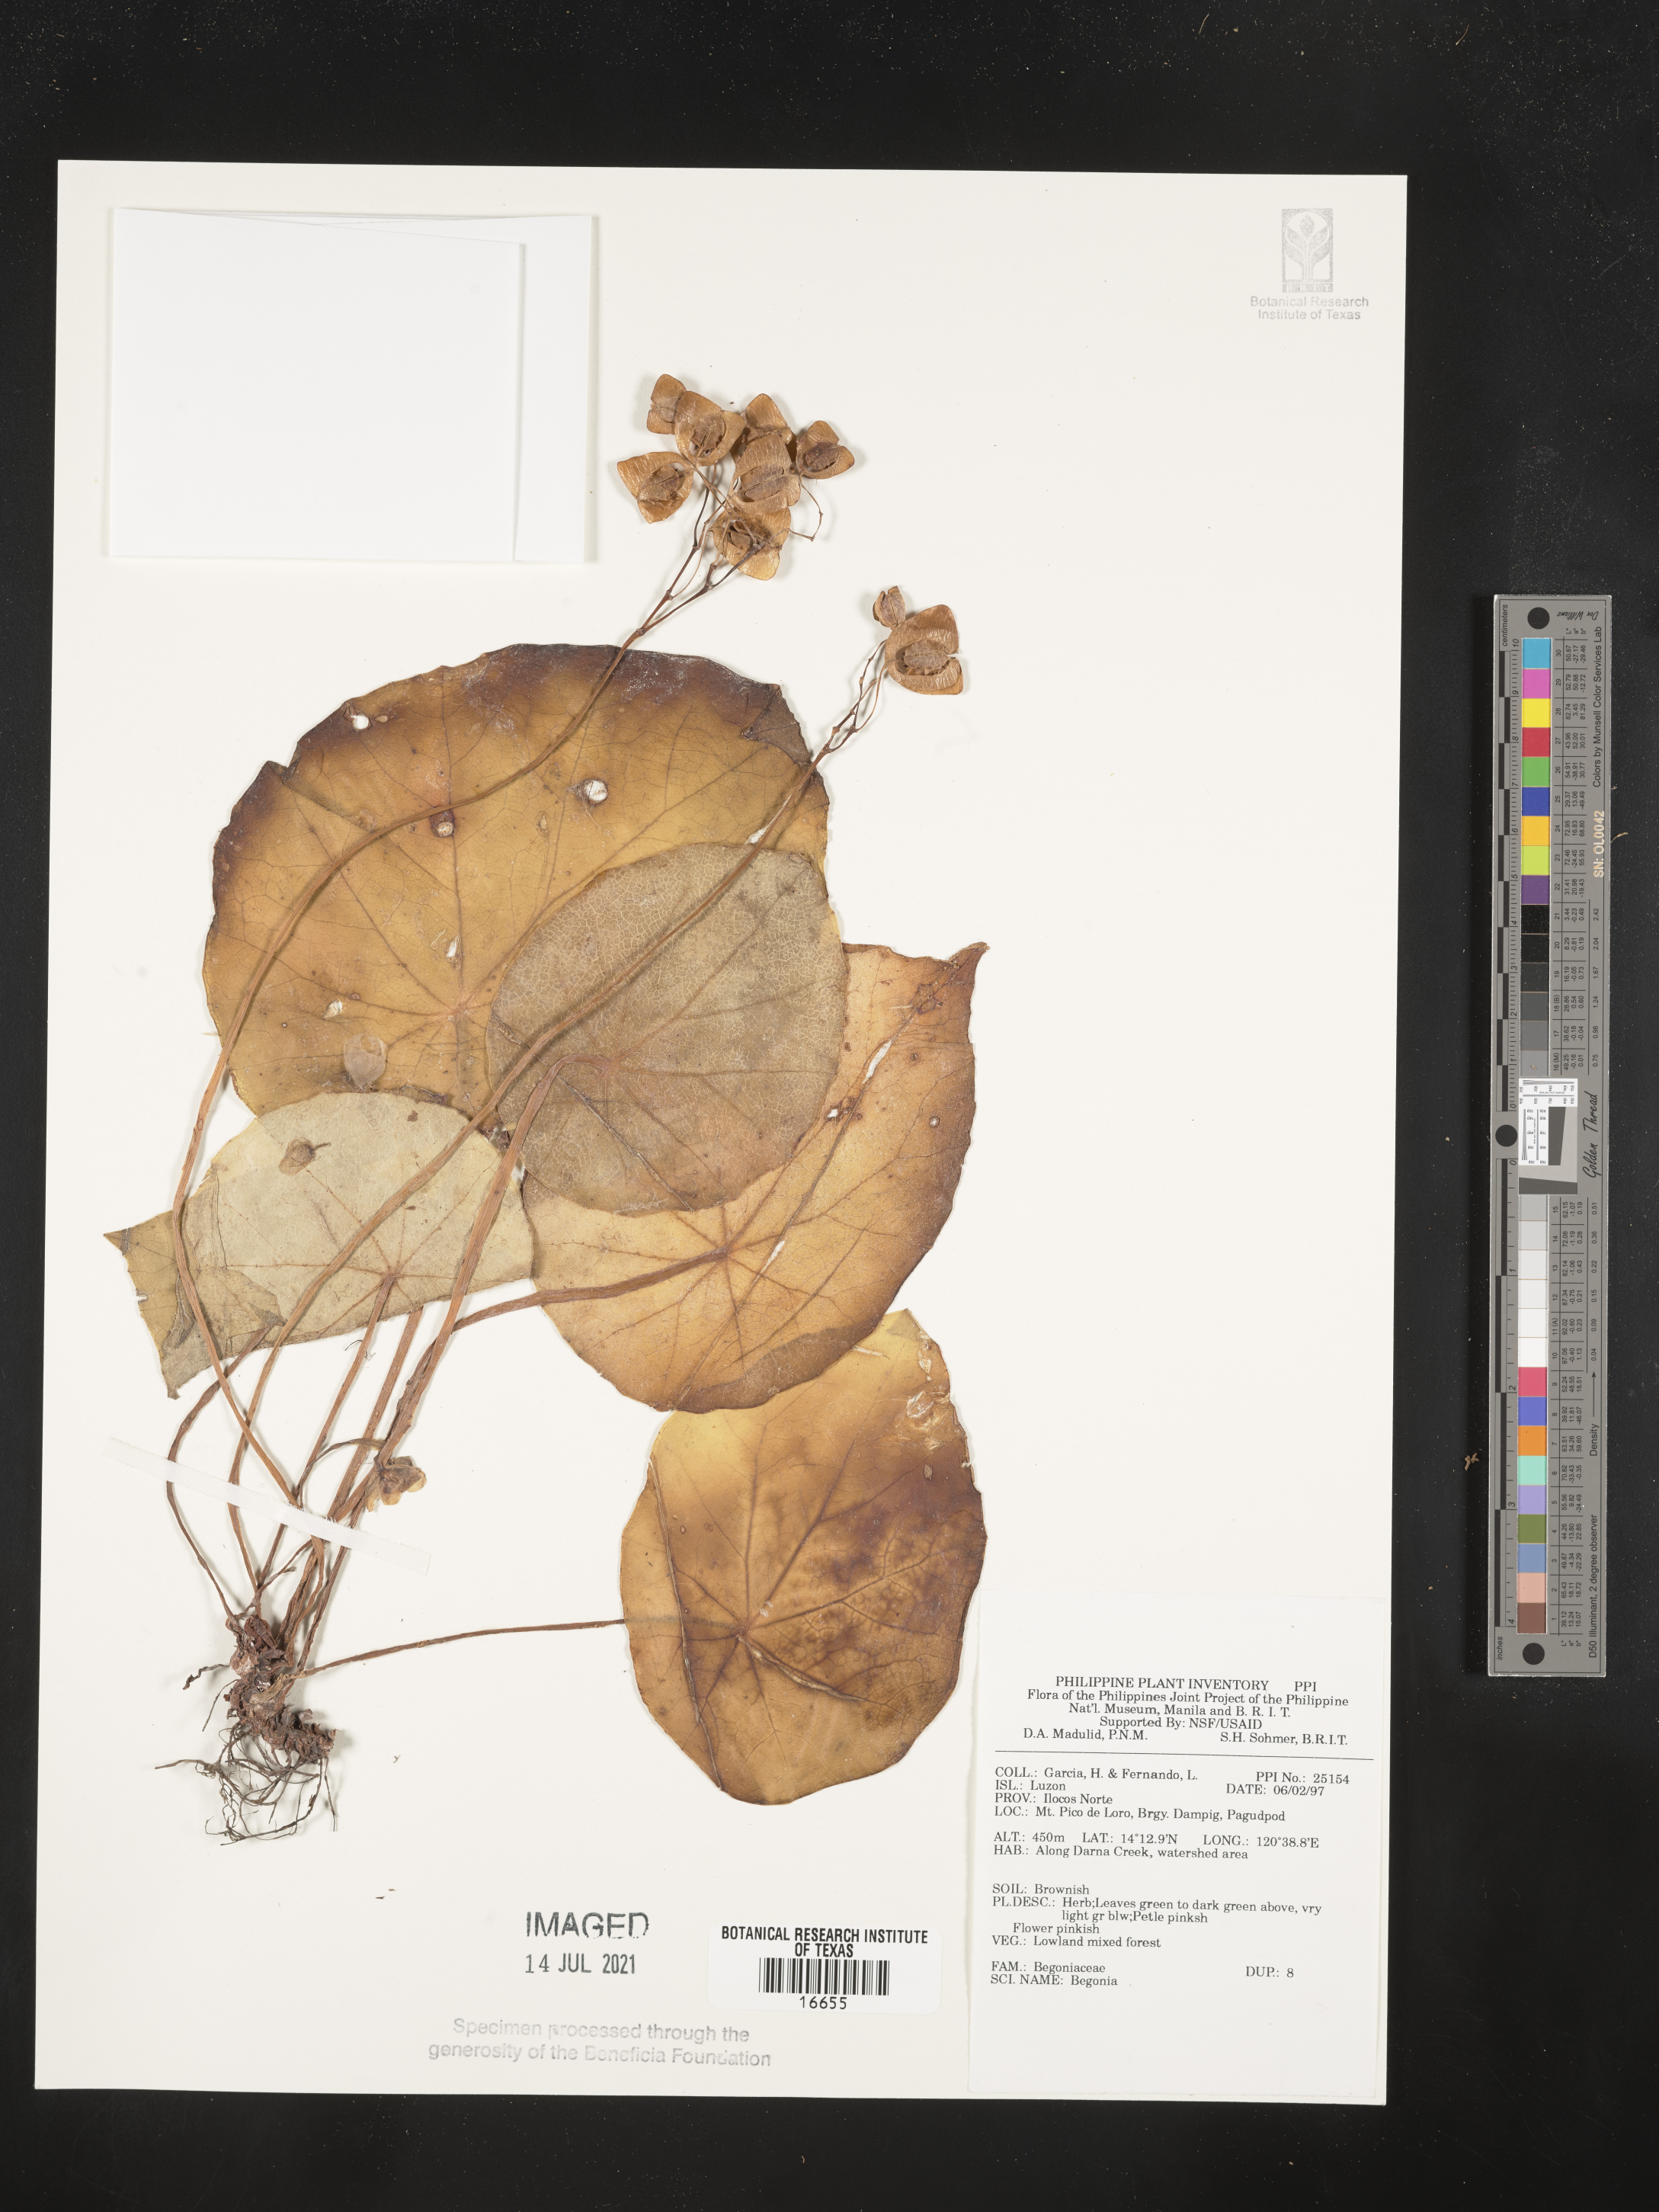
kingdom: Plantae
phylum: Tracheophyta
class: Magnoliopsida
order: Cucurbitales
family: Begoniaceae
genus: Begonia
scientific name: Begonia
